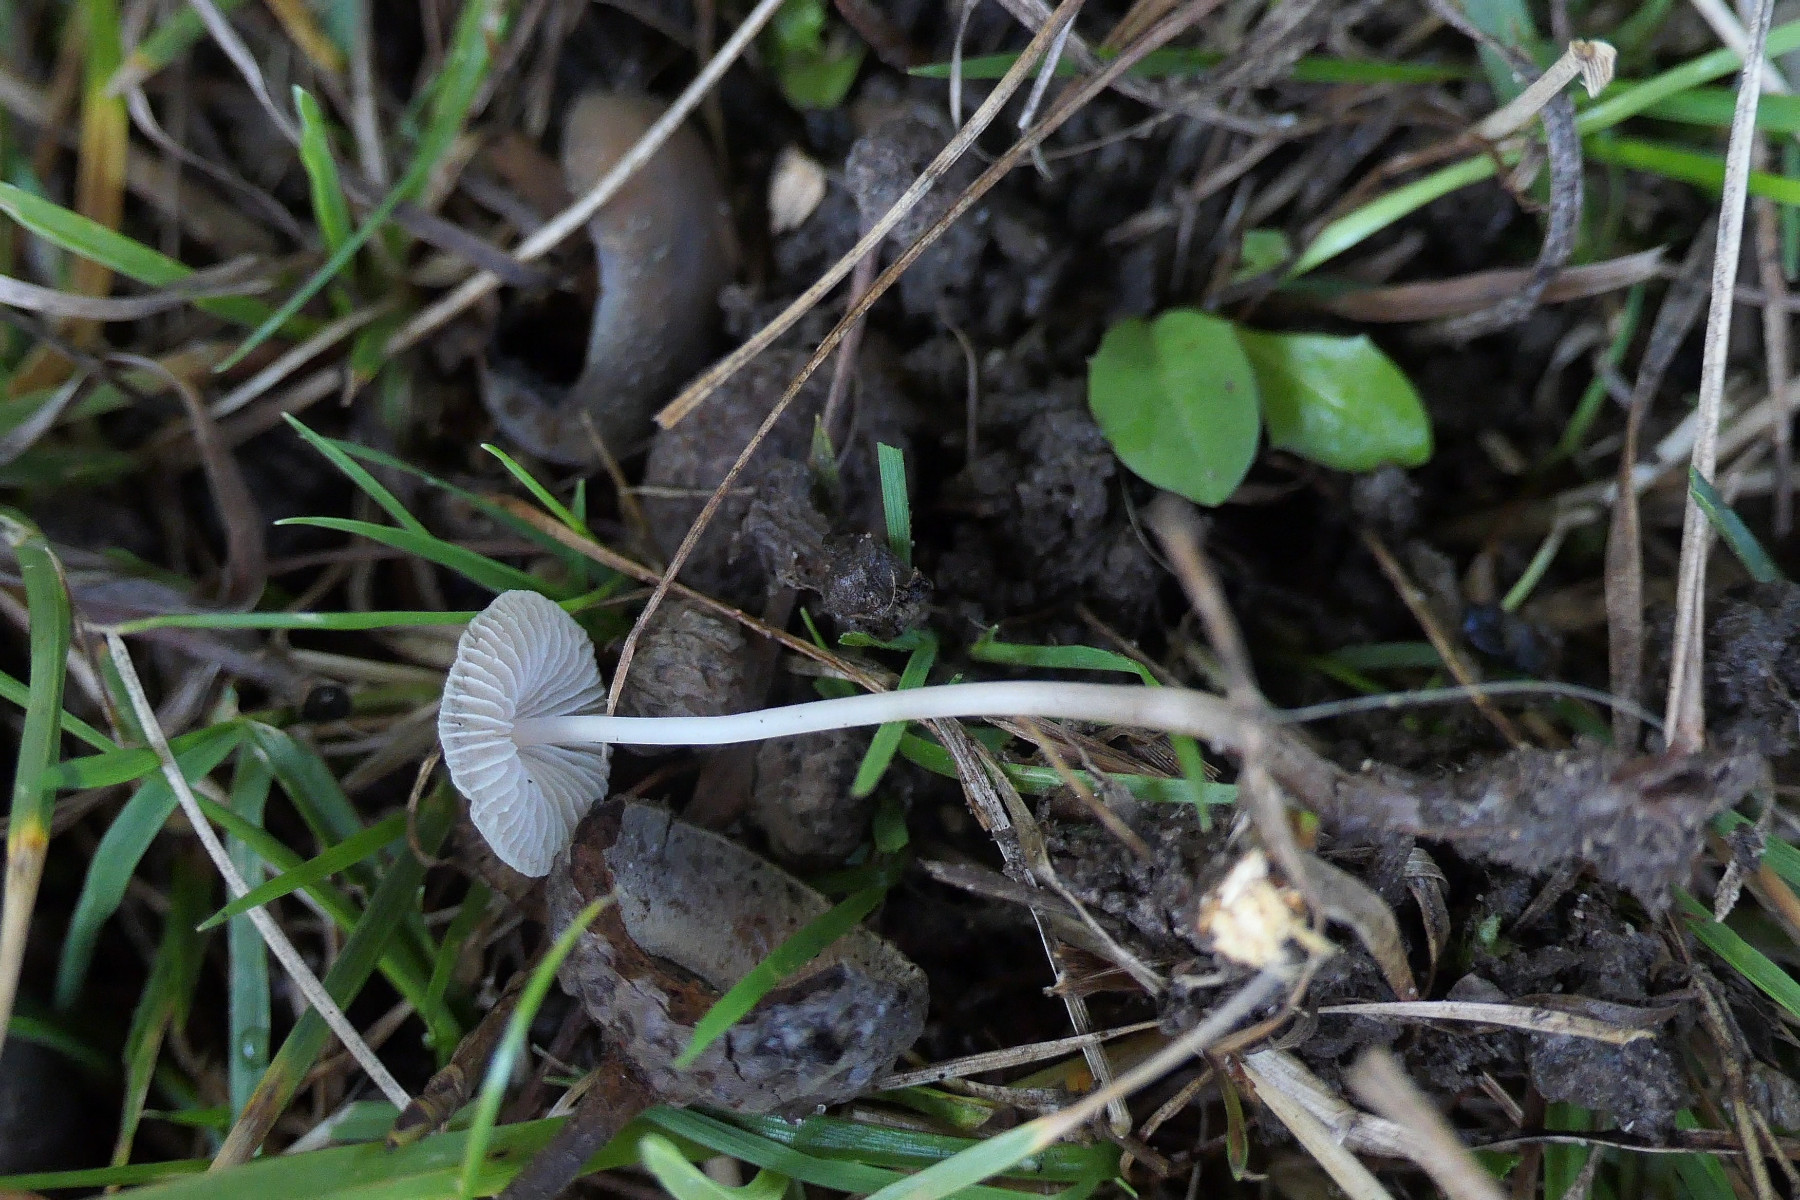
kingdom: Fungi
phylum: Basidiomycota
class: Agaricomycetes
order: Agaricales
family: Mycenaceae
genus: Mycena
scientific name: Mycena vitilis
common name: blankstokket huesvamp
